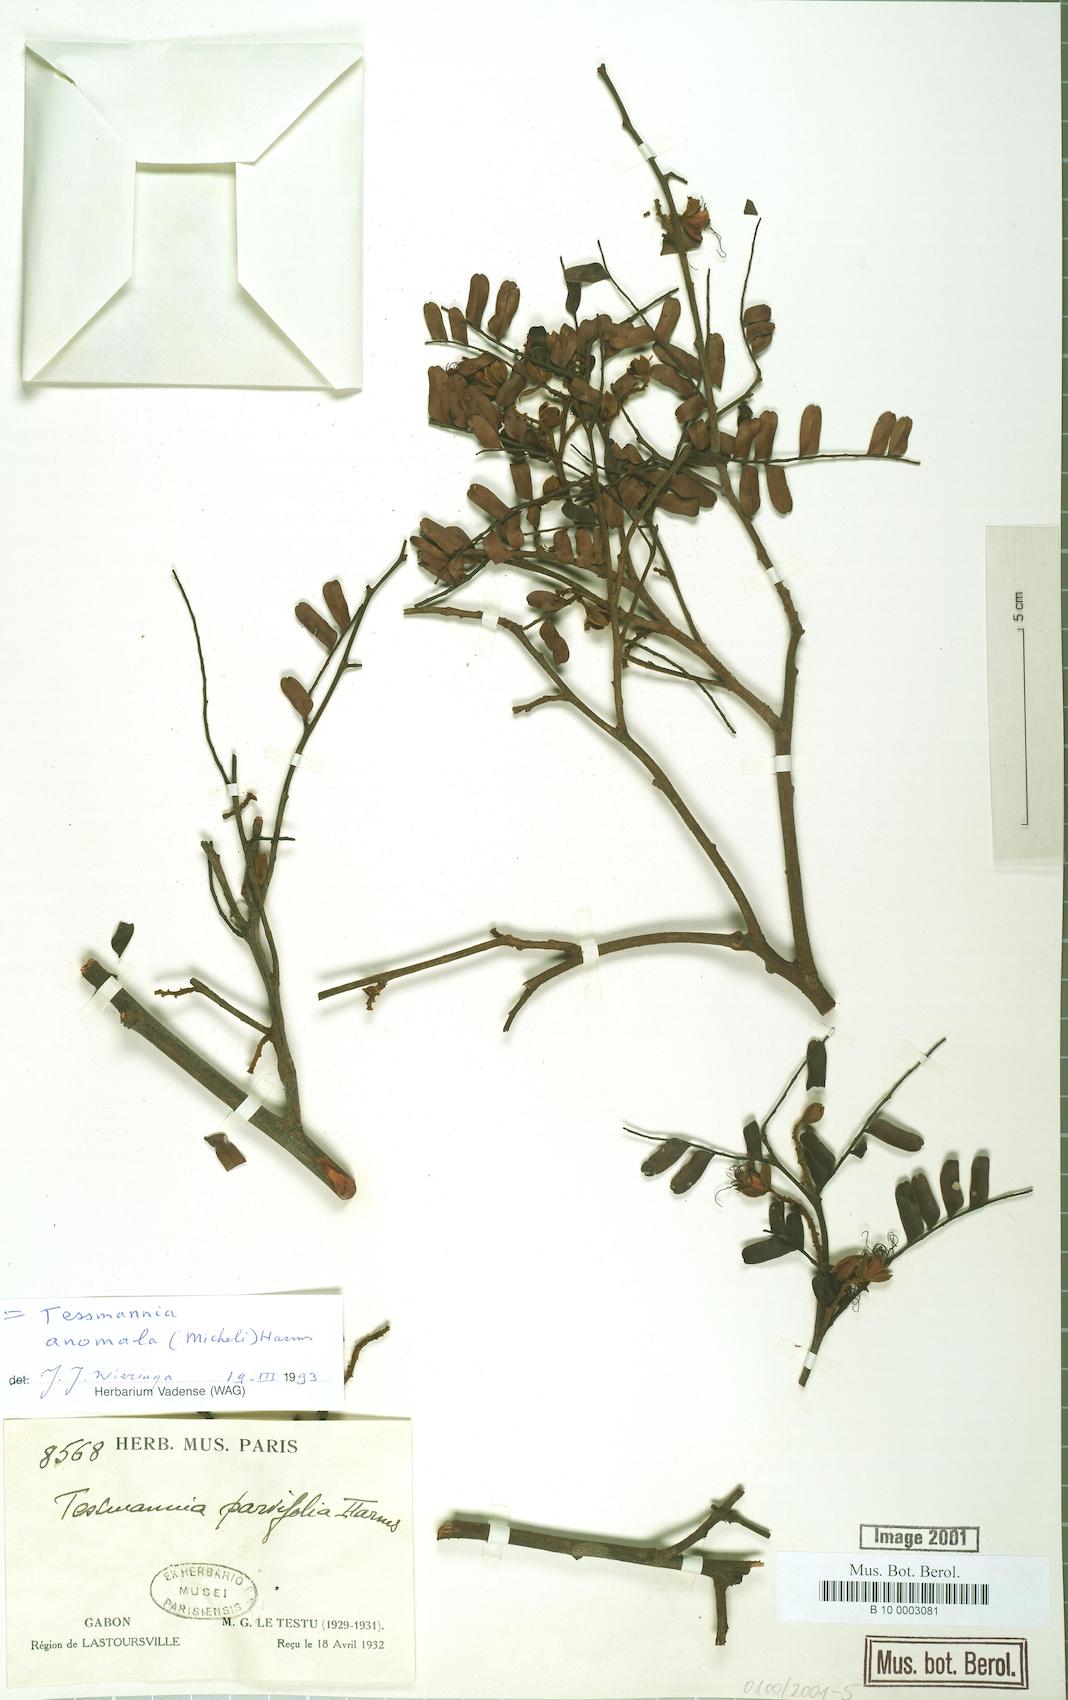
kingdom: Plantae
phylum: Tracheophyta
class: Magnoliopsida
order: Fabales
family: Fabaceae
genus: Tessmannia
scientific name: Tessmannia anomala
